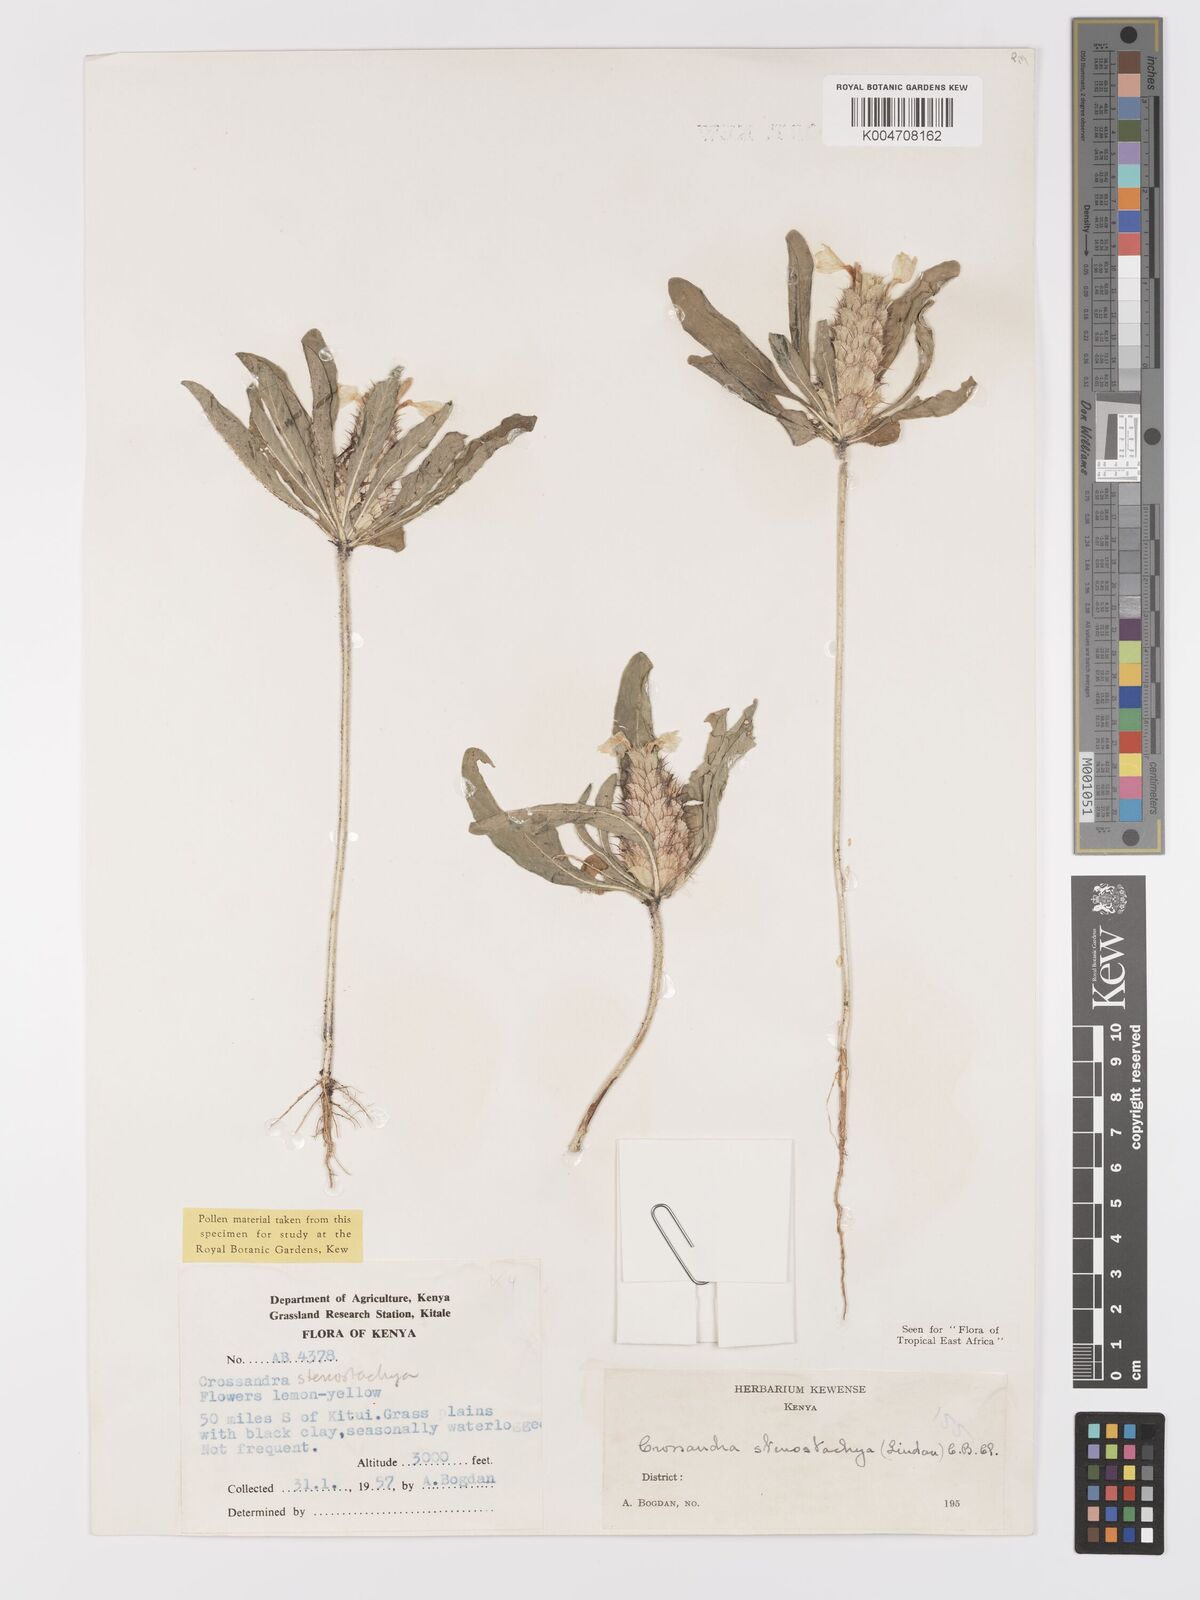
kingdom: Plantae
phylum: Tracheophyta
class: Magnoliopsida
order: Lamiales
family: Acanthaceae
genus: Crossandra
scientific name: Crossandra stenostachya
